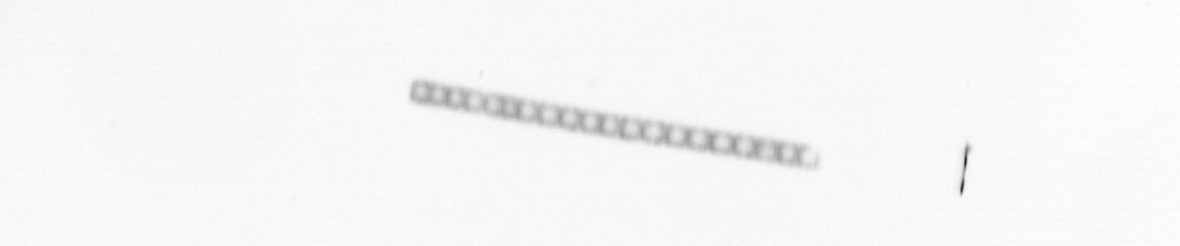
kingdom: Chromista
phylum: Ochrophyta
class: Bacillariophyceae
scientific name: Bacillariophyceae
